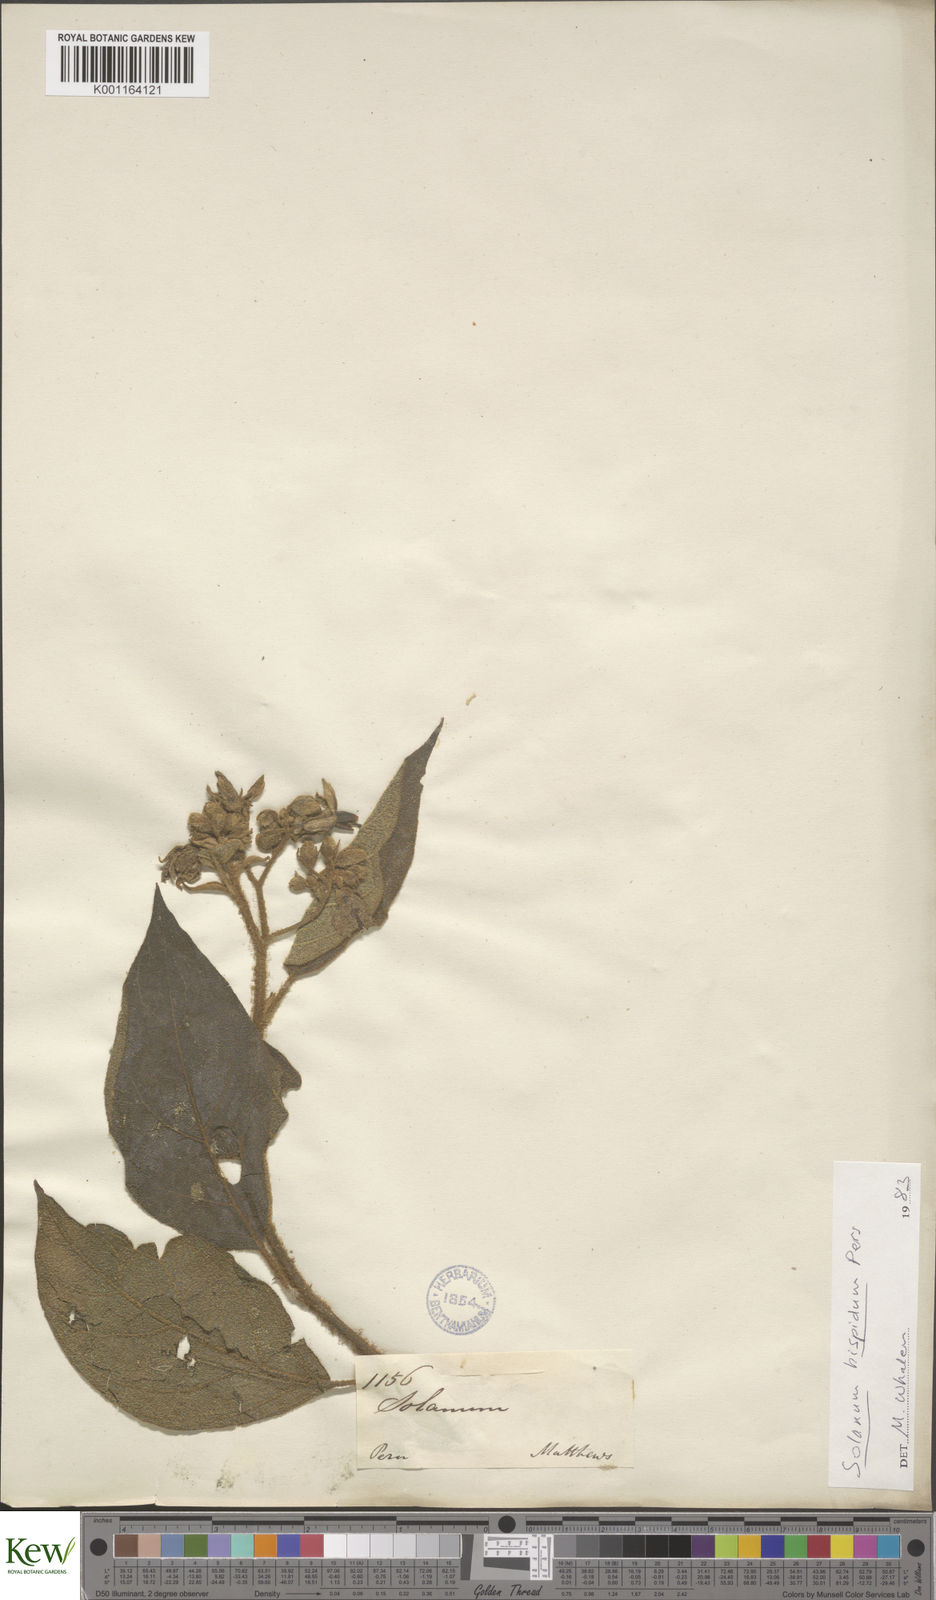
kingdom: Plantae
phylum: Tracheophyta
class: Magnoliopsida
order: Solanales
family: Solanaceae
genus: Solanum
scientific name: Solanum asperolanatum
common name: Devil's-fig
